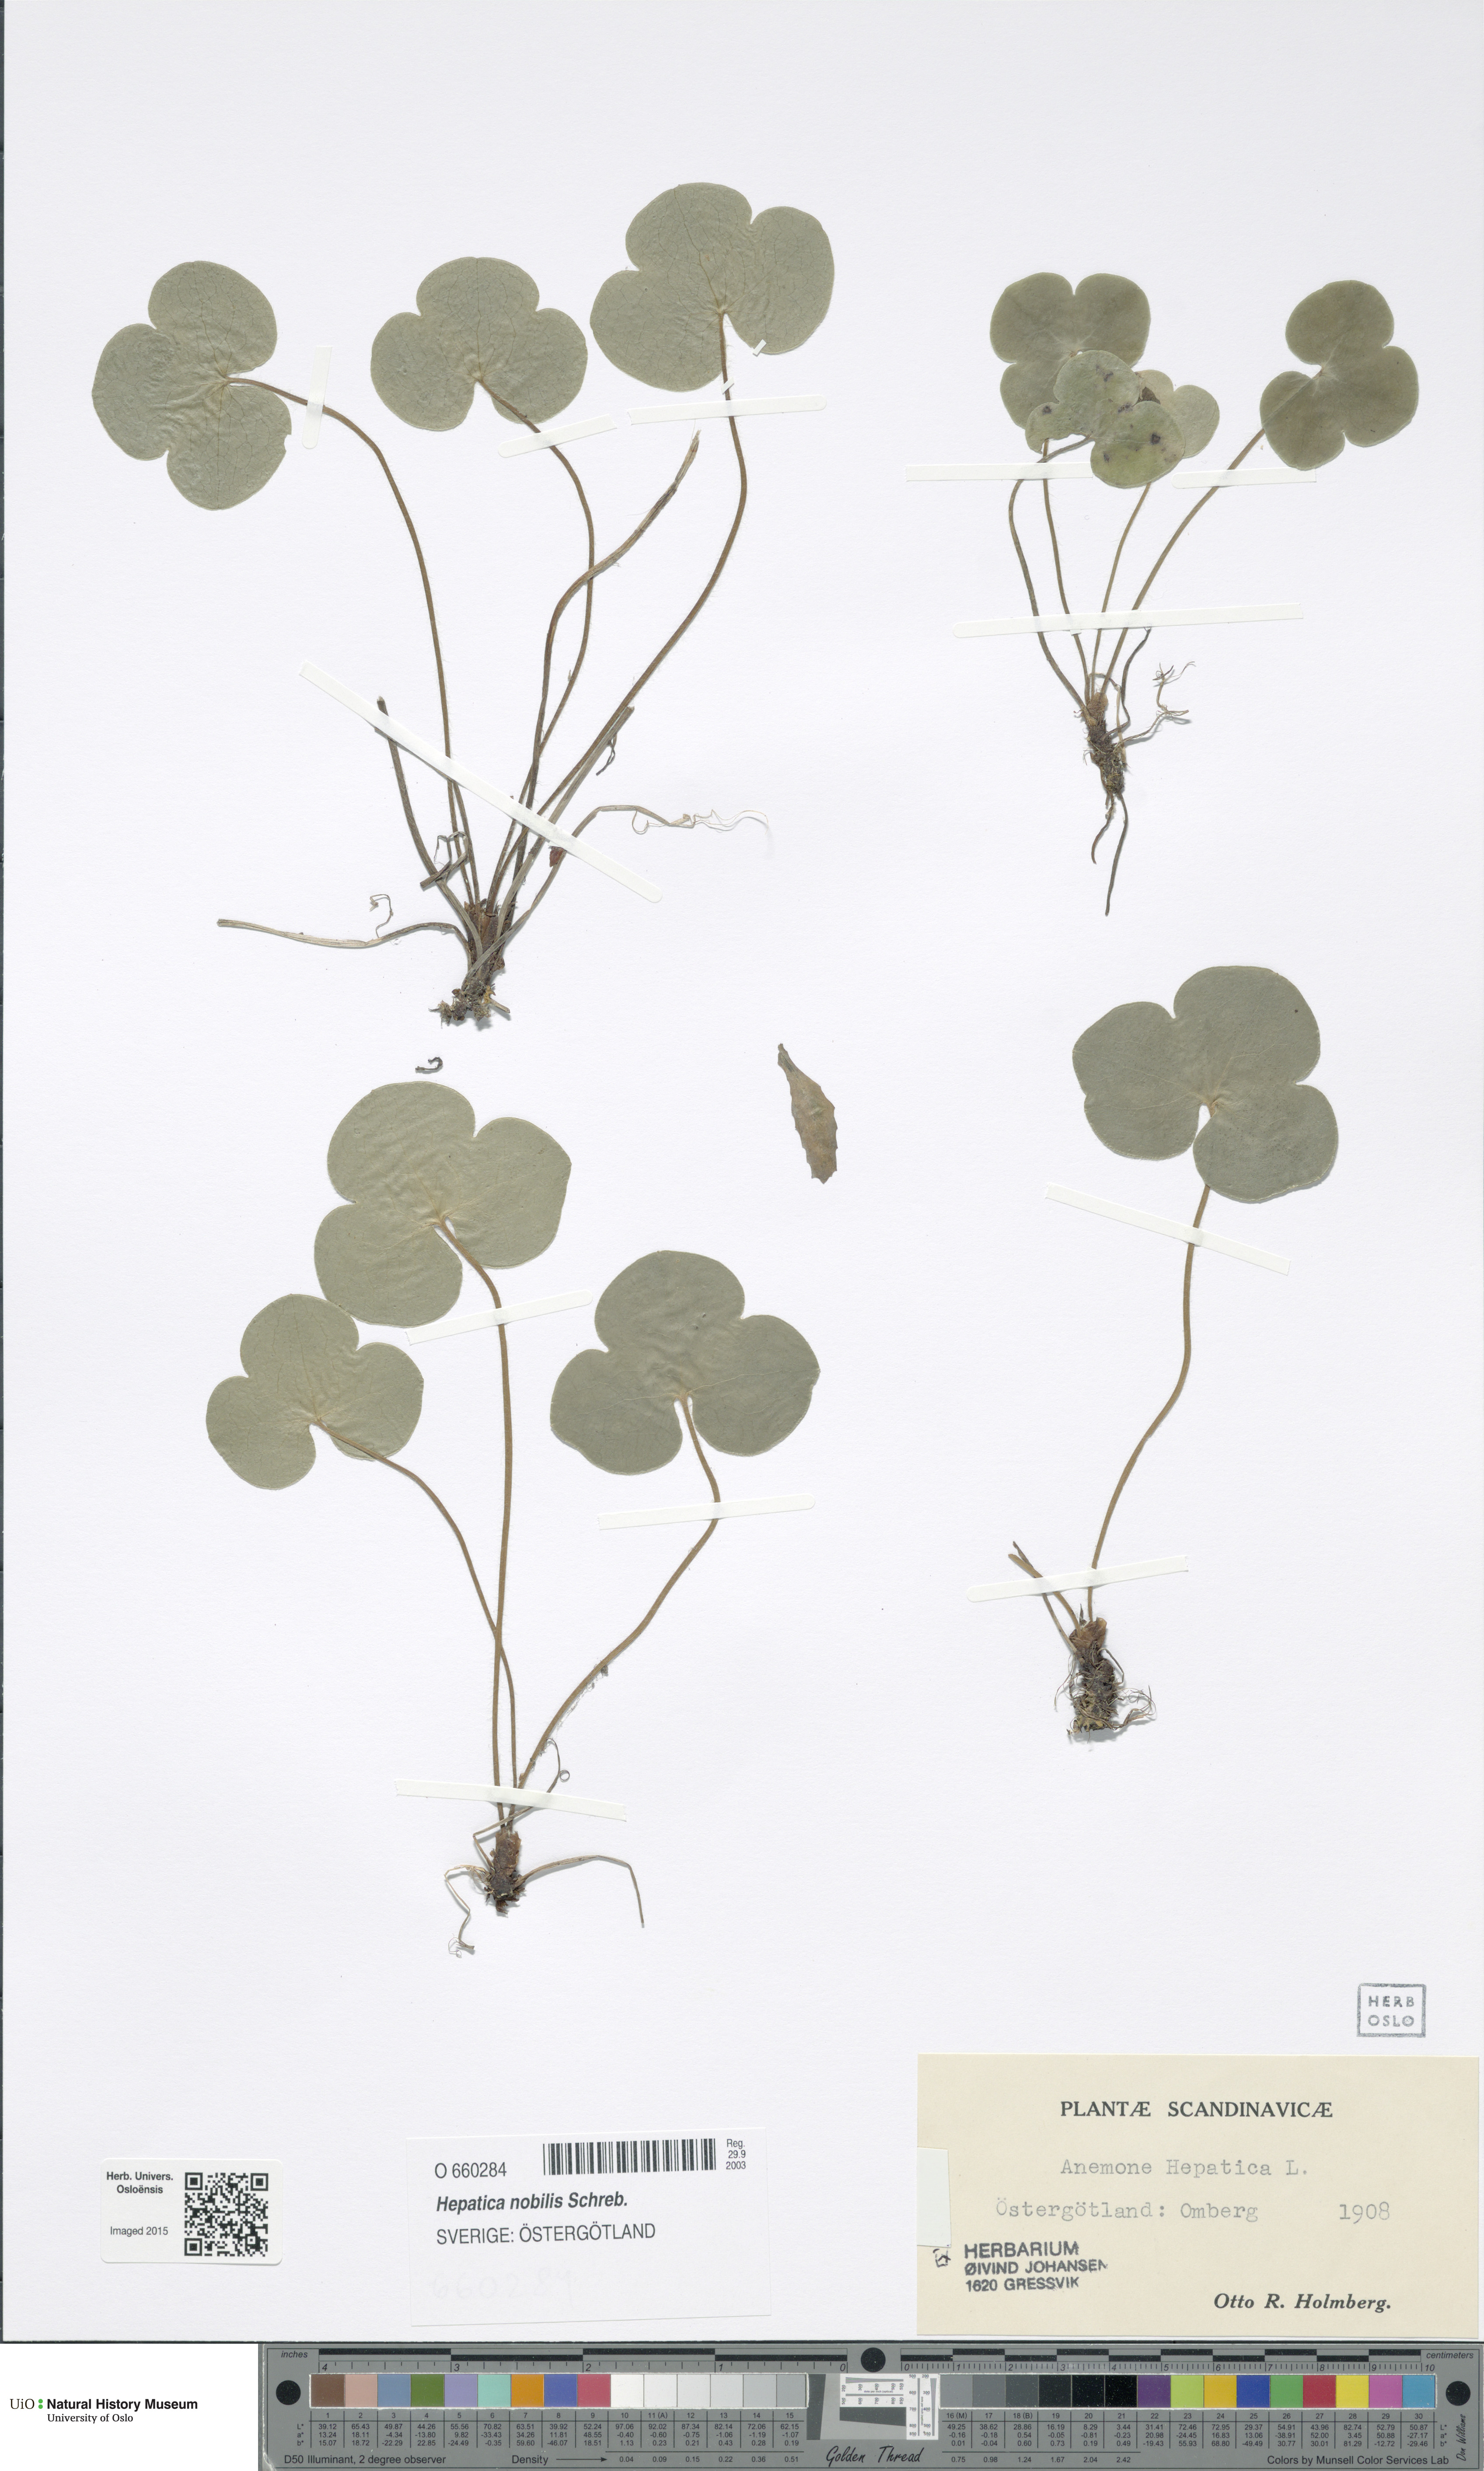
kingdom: Plantae
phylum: Tracheophyta
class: Magnoliopsida
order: Ranunculales
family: Ranunculaceae
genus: Hepatica
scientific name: Hepatica nobilis
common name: Liverleaf
